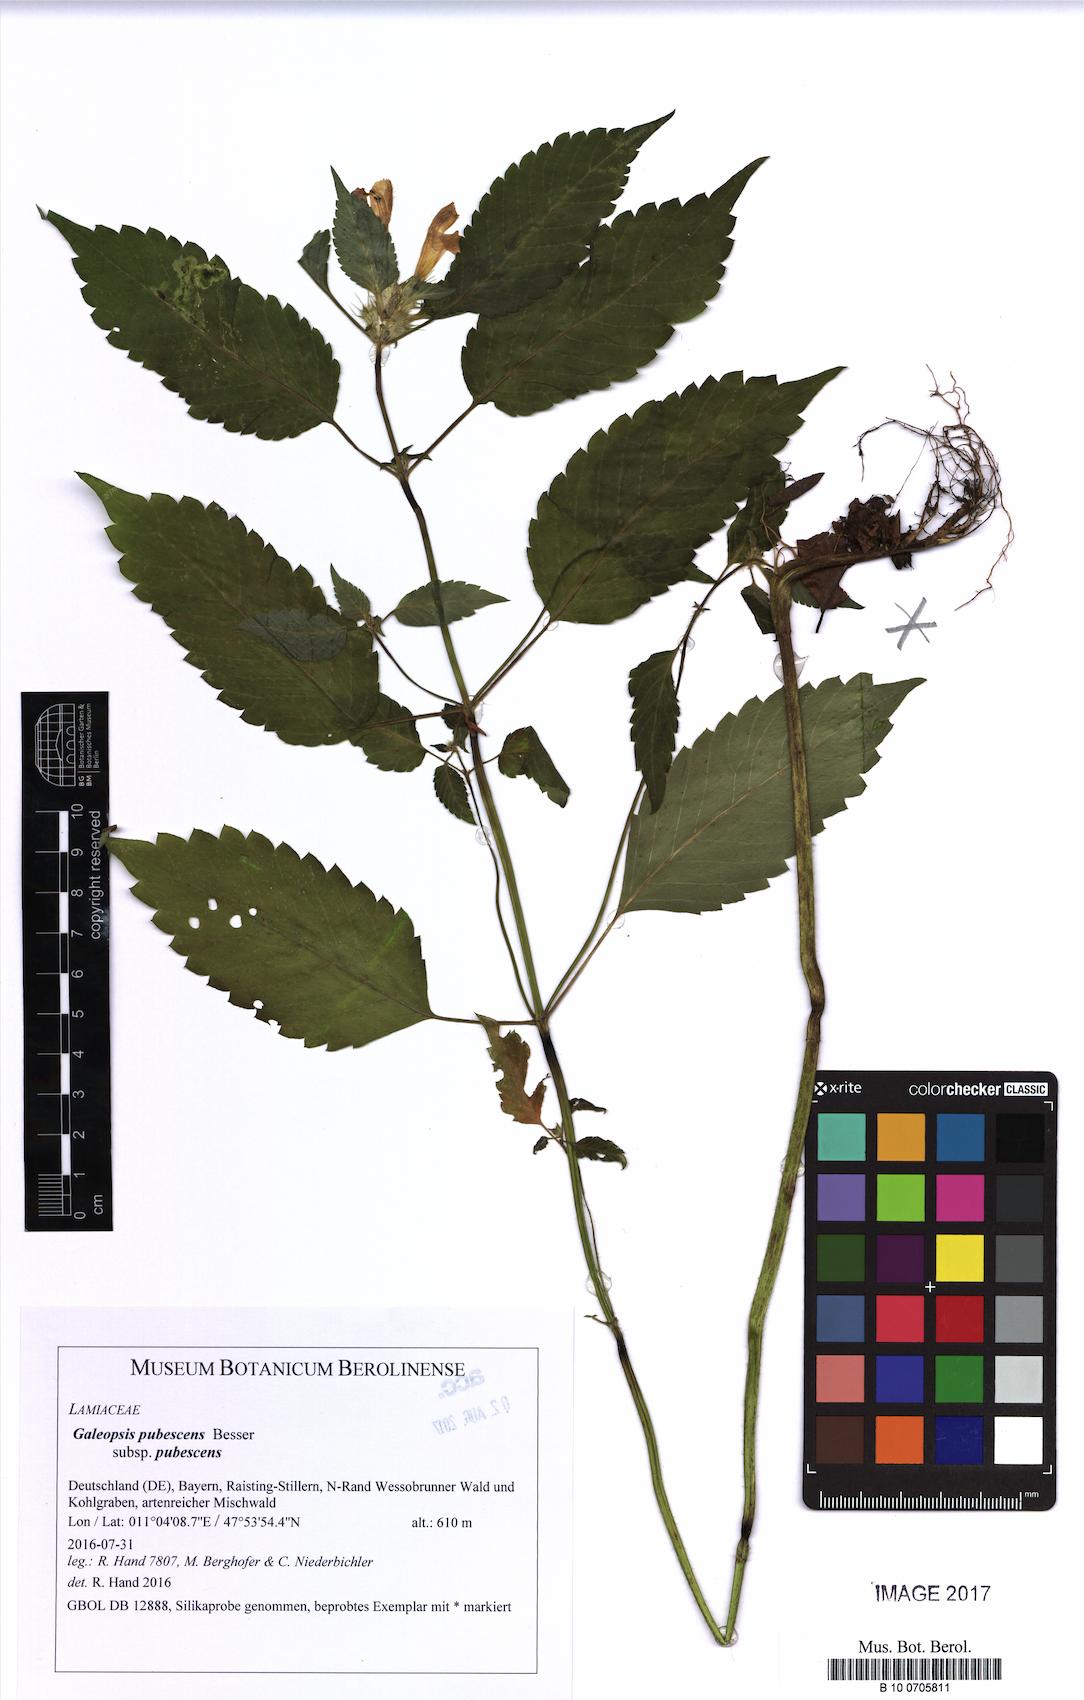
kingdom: Plantae
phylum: Tracheophyta
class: Magnoliopsida
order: Lamiales
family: Lamiaceae
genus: Galeopsis
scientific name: Galeopsis pubescens
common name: Downy hemp-nettle
